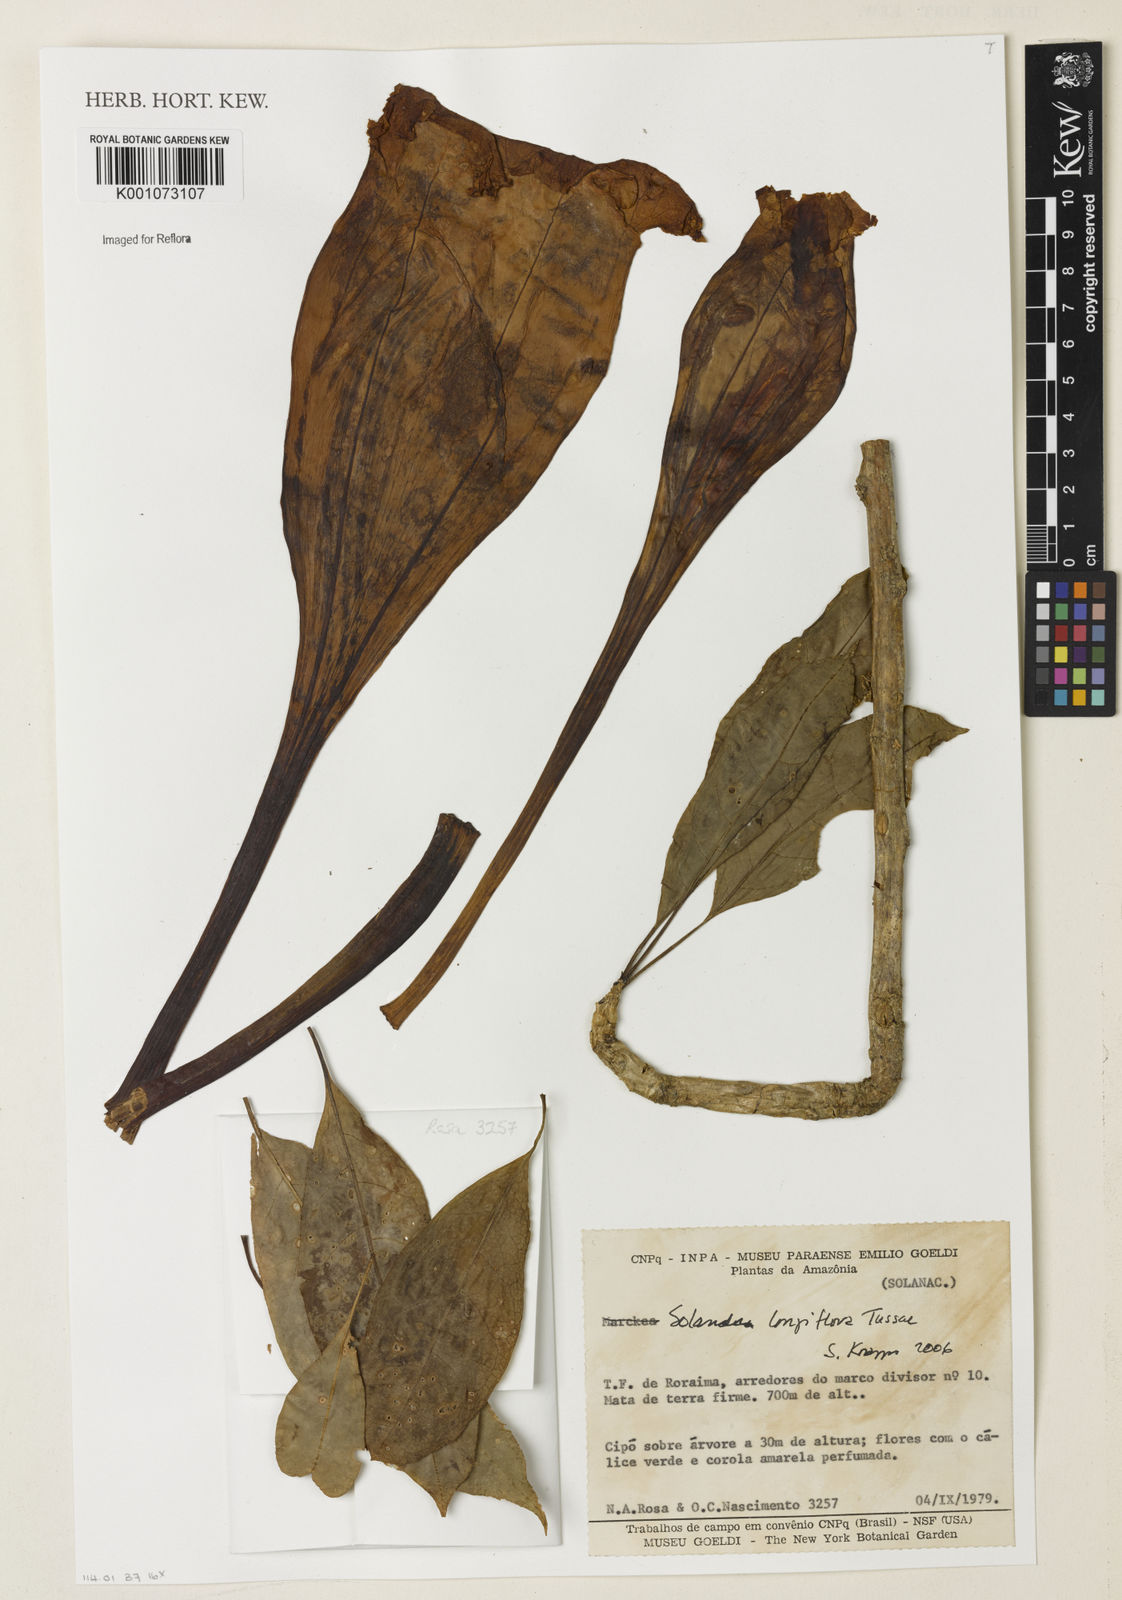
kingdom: Plantae
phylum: Tracheophyta
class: Magnoliopsida
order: Solanales
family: Solanaceae
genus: Solandra
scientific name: Solandra grandiflora
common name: Showy chalicevine
